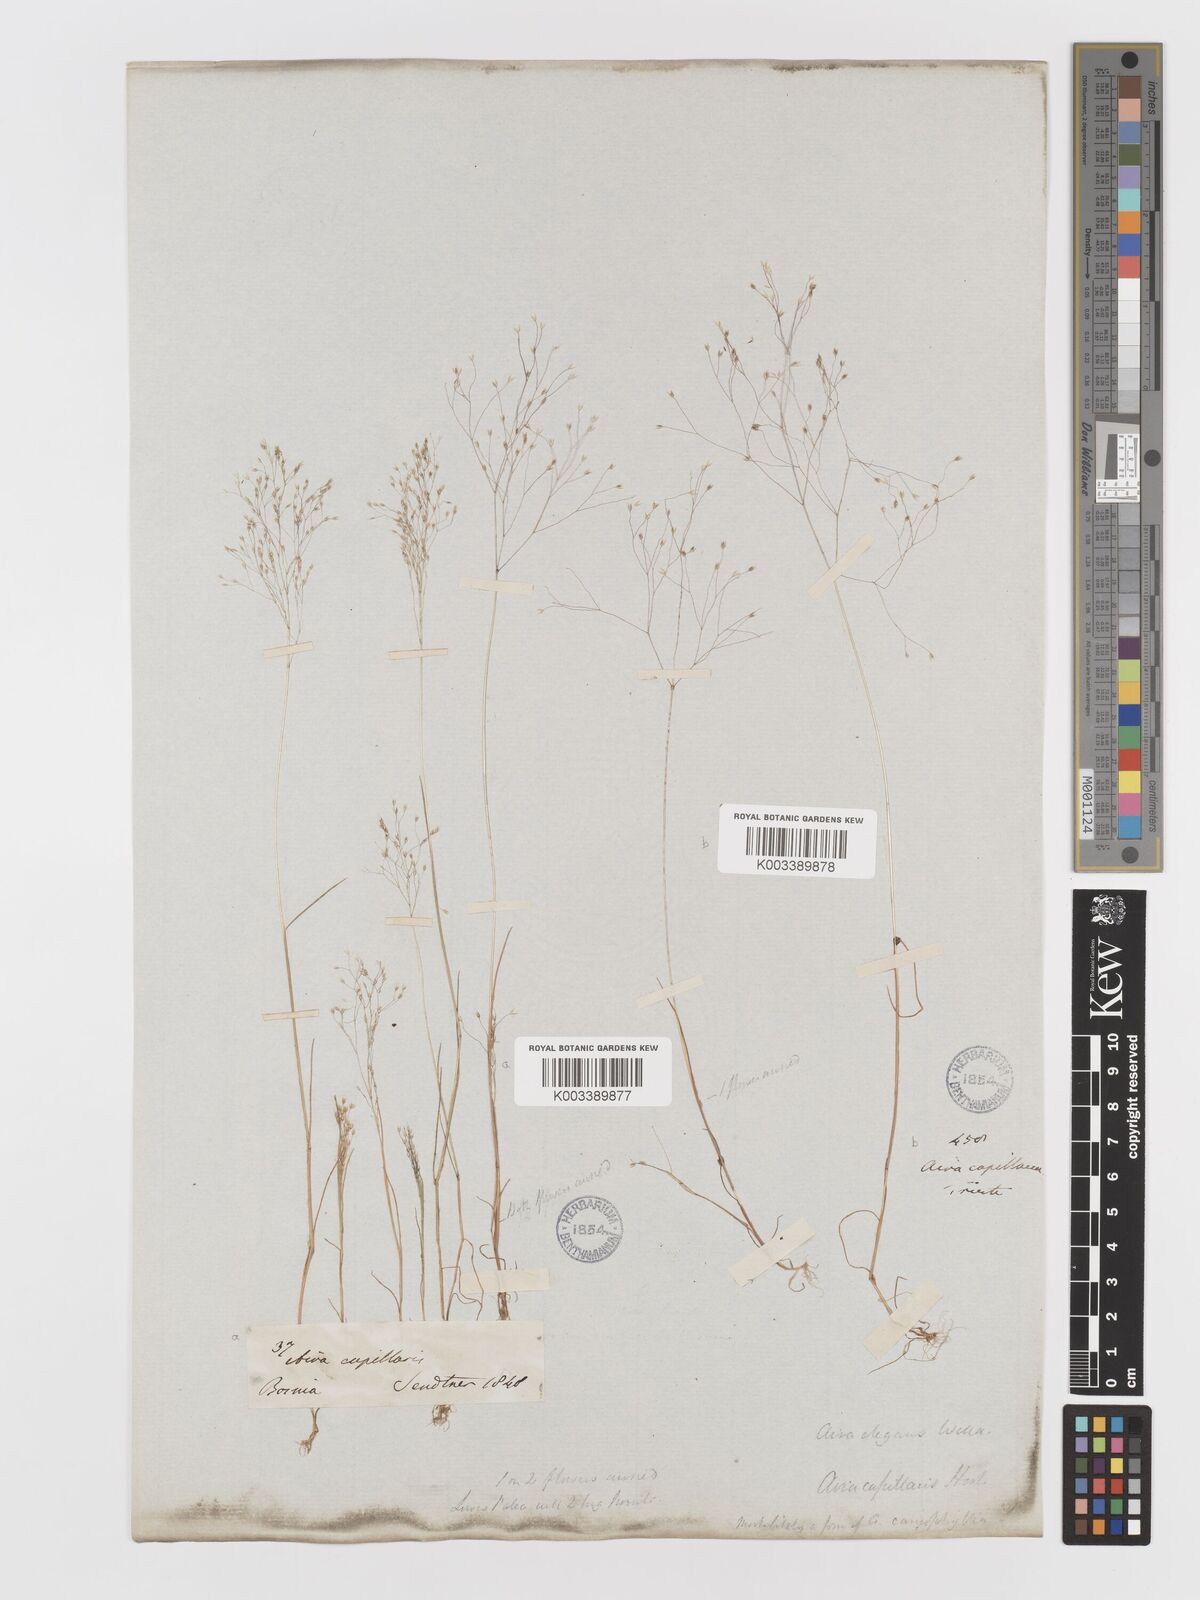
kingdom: Plantae
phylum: Tracheophyta
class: Liliopsida
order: Poales
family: Poaceae
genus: Aira
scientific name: Aira elegans
